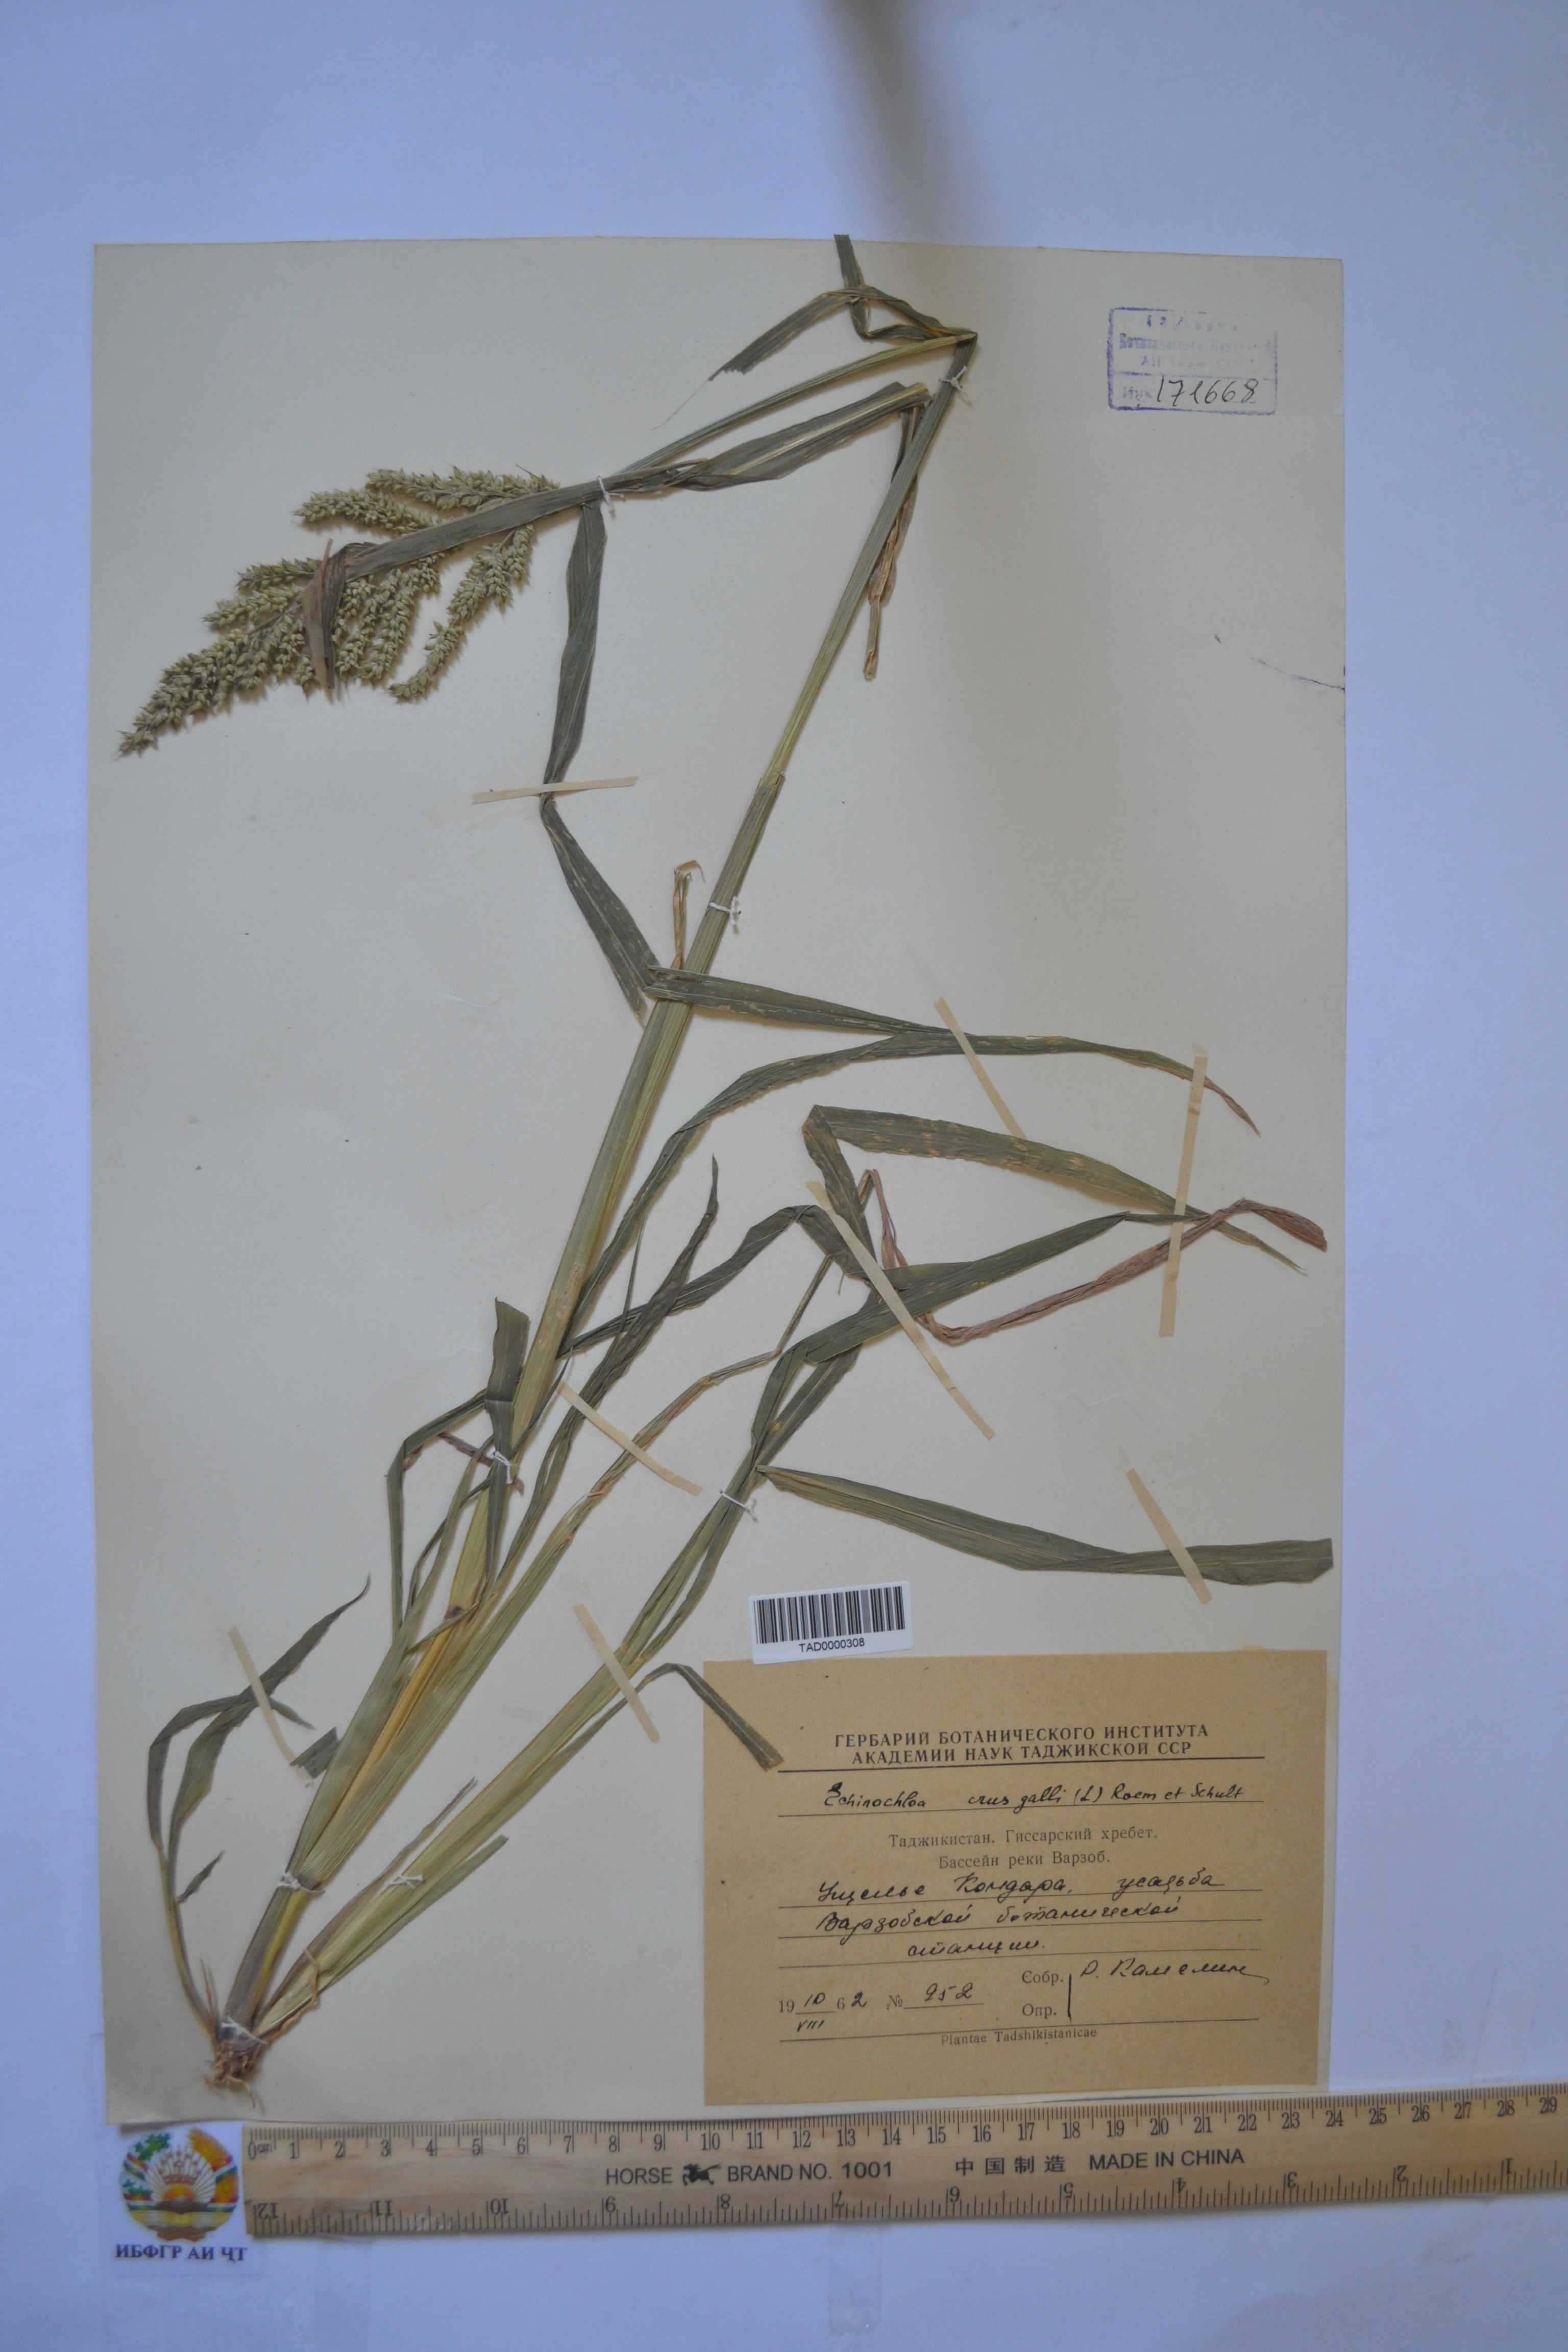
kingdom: Plantae
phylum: Tracheophyta
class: Liliopsida
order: Poales
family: Poaceae
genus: Echinochloa
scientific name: Echinochloa crus-galli
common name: Cockspur
